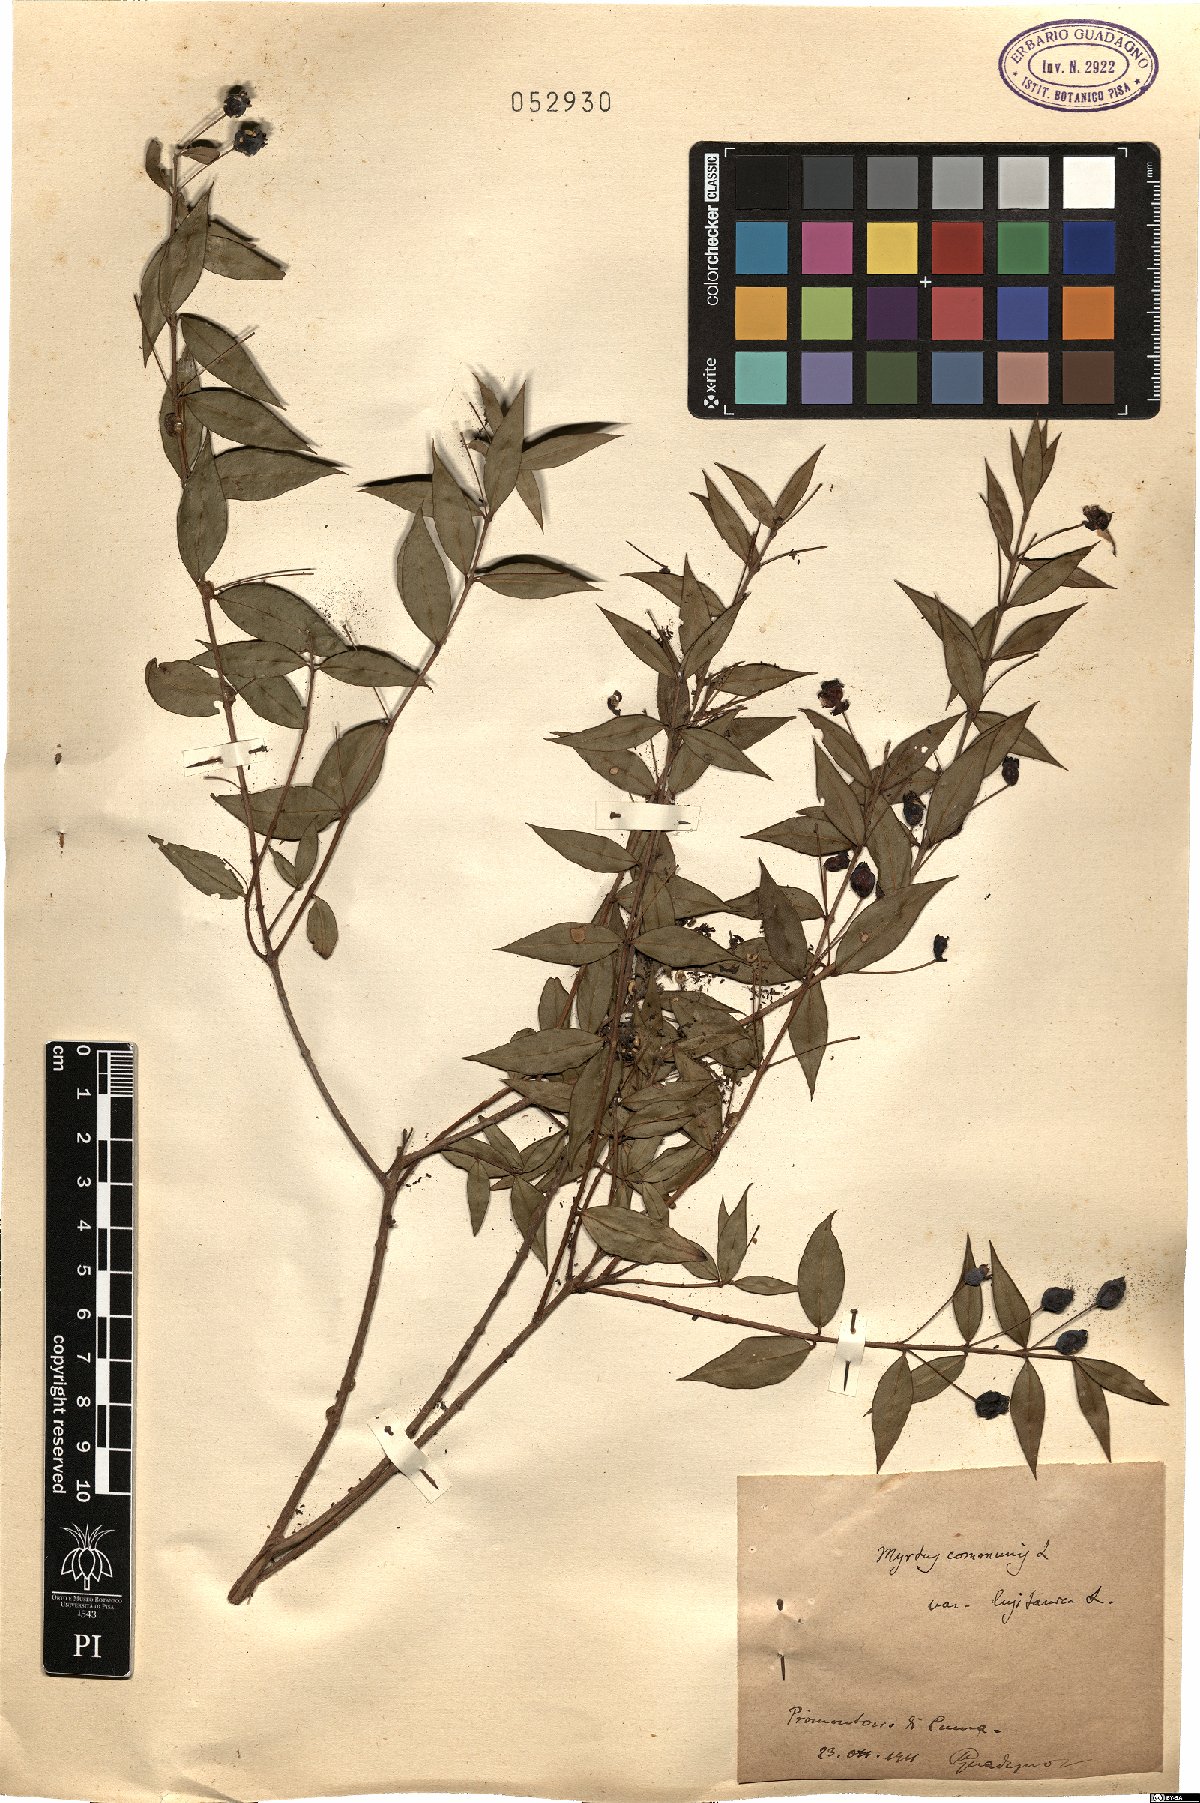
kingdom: Plantae
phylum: Tracheophyta
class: Magnoliopsida
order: Myrtales
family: Myrtaceae
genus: Myrtus
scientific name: Myrtus communis
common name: Myrtle
